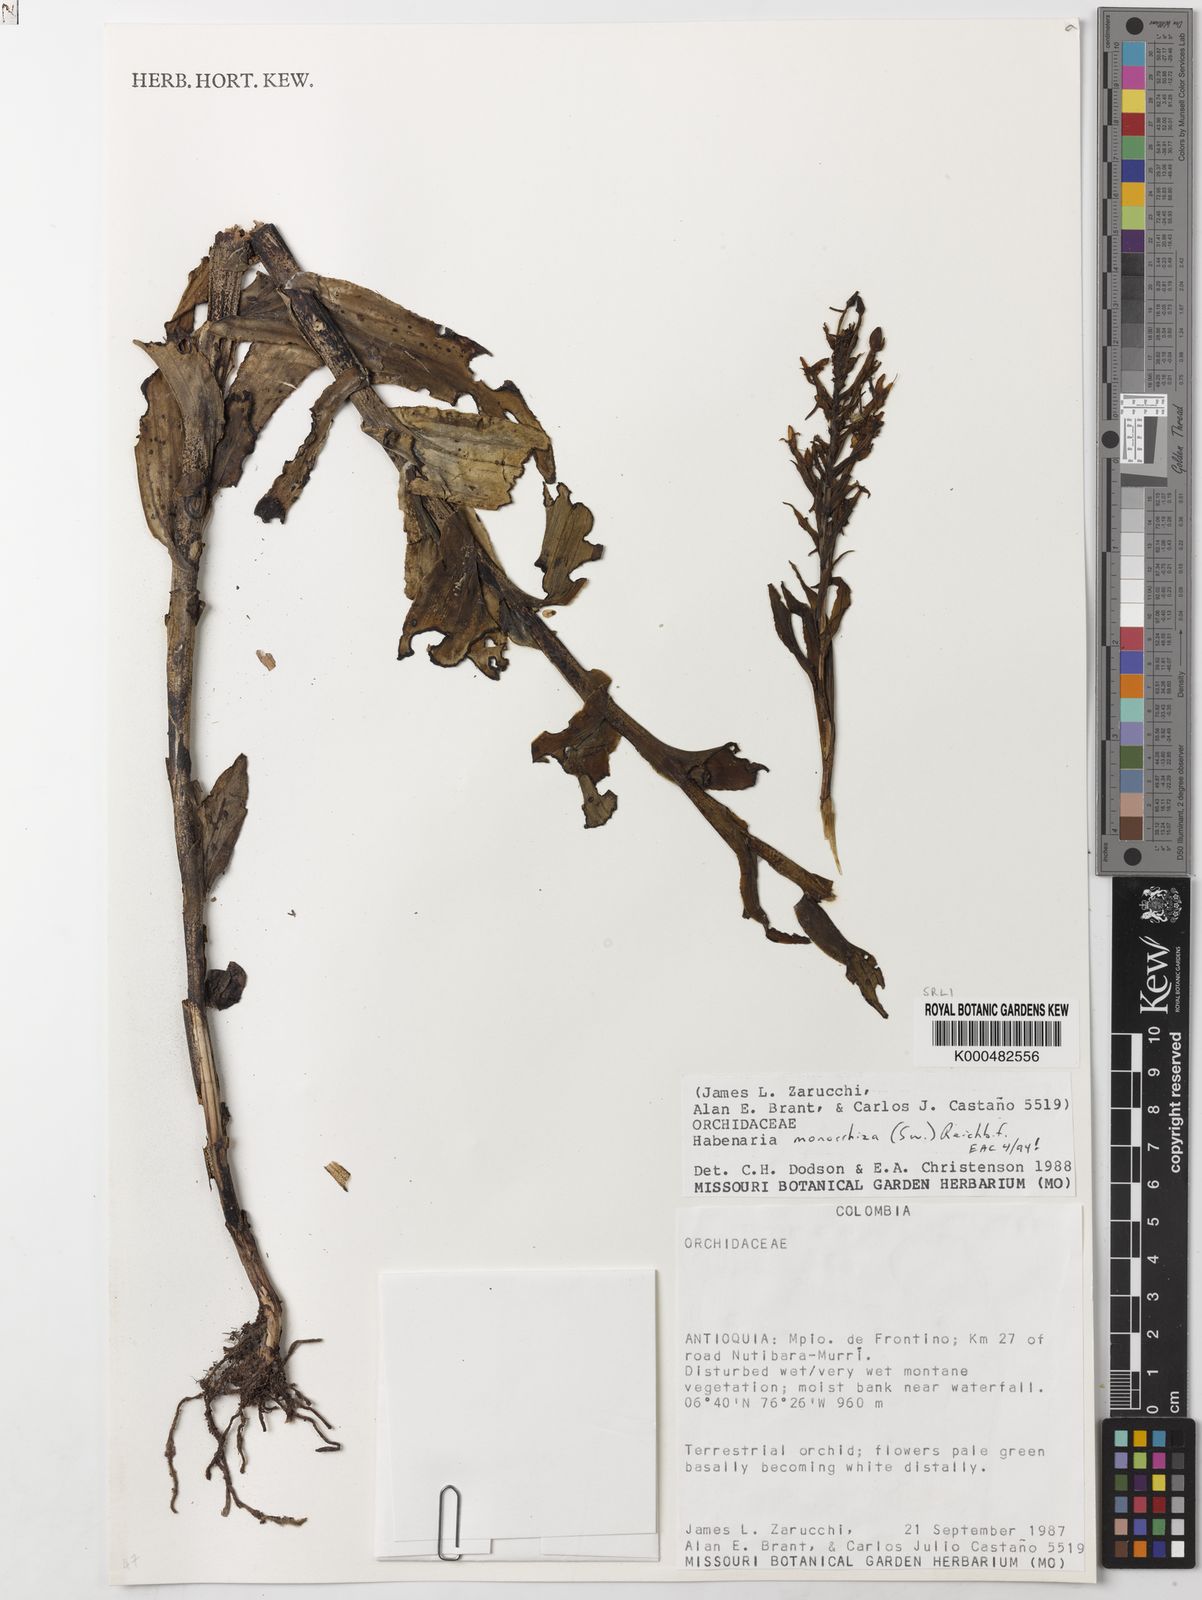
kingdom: Plantae
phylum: Tracheophyta
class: Liliopsida
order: Asparagales
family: Orchidaceae
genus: Habenaria
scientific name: Habenaria monorrhiza
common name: Tropical bog orchid
